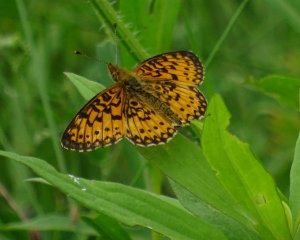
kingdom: Animalia
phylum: Arthropoda
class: Insecta
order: Lepidoptera
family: Nymphalidae
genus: Boloria
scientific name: Boloria selene
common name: Silver-bordered Fritillary
